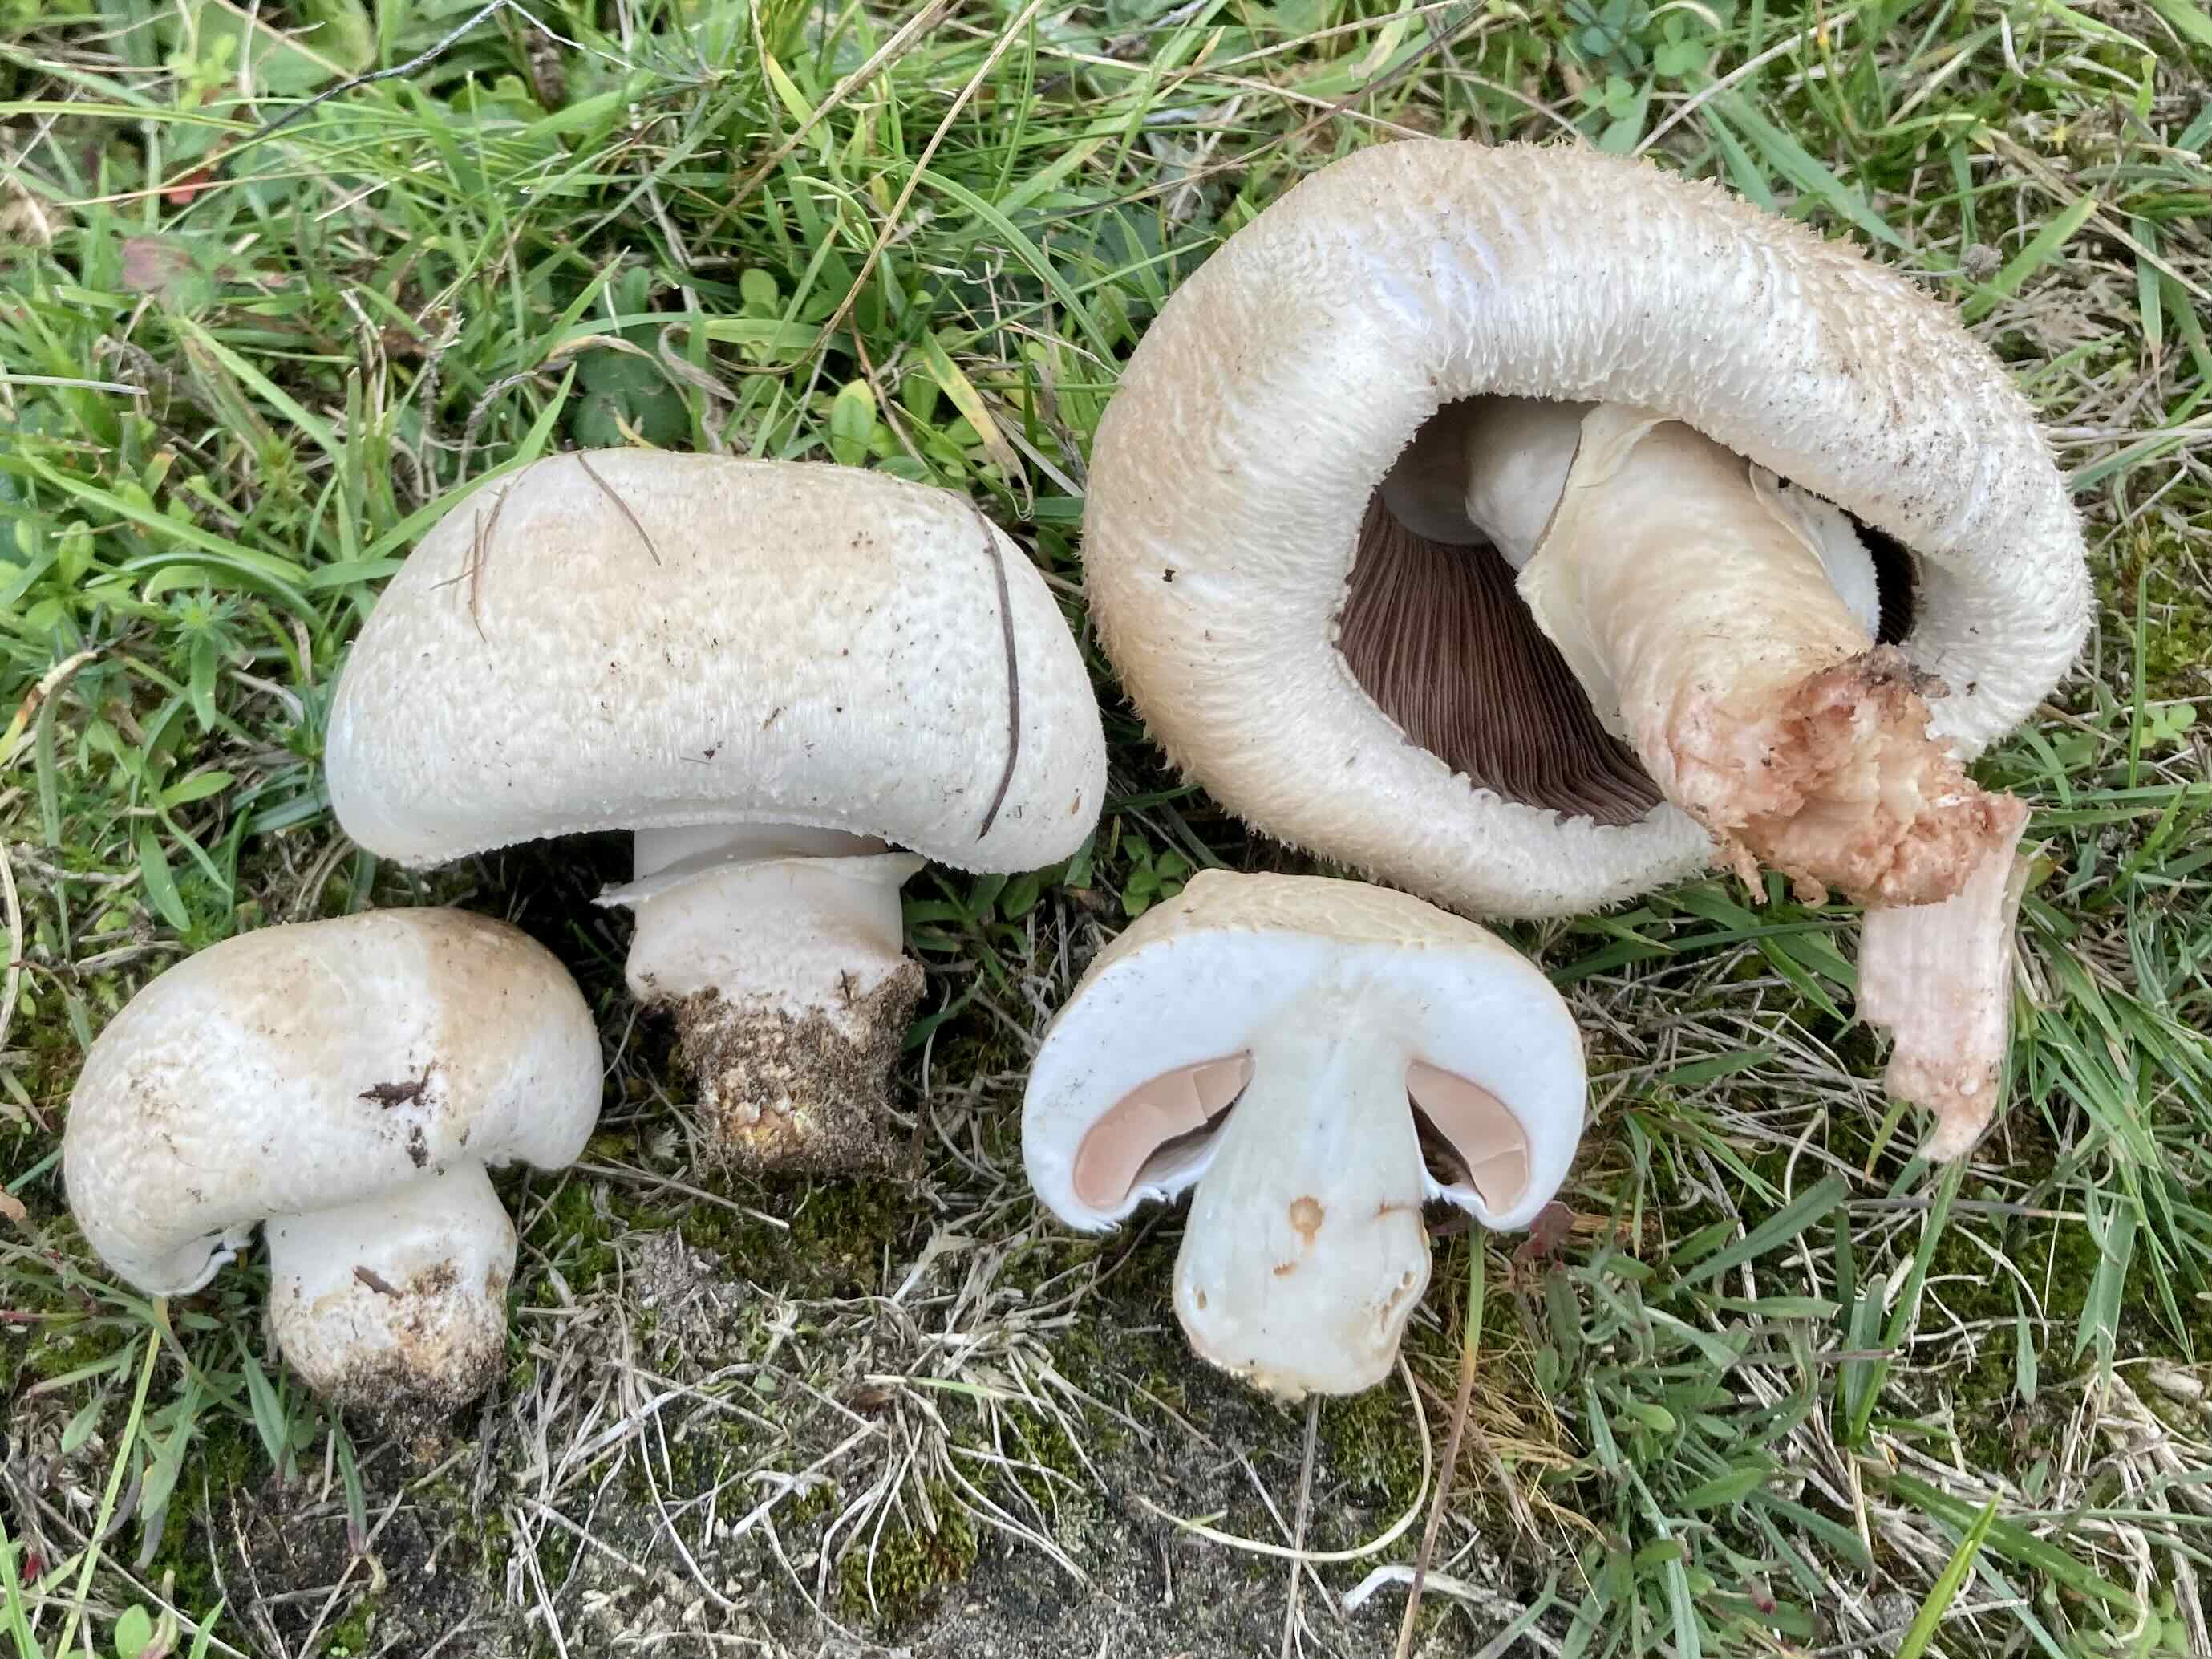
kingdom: Fungi
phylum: Basidiomycota
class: Agaricomycetes
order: Agaricales
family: Agaricaceae
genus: Agaricus
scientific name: Agaricus litoralis
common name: kyst-champignon
